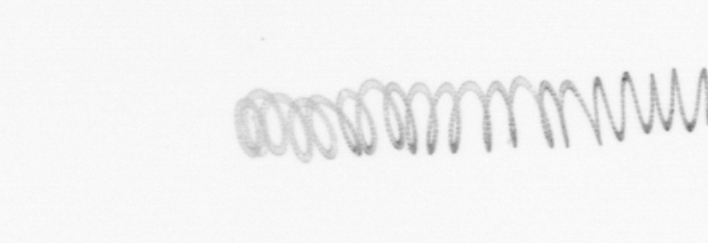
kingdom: Chromista
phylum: Ochrophyta
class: Bacillariophyceae
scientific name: Bacillariophyceae
